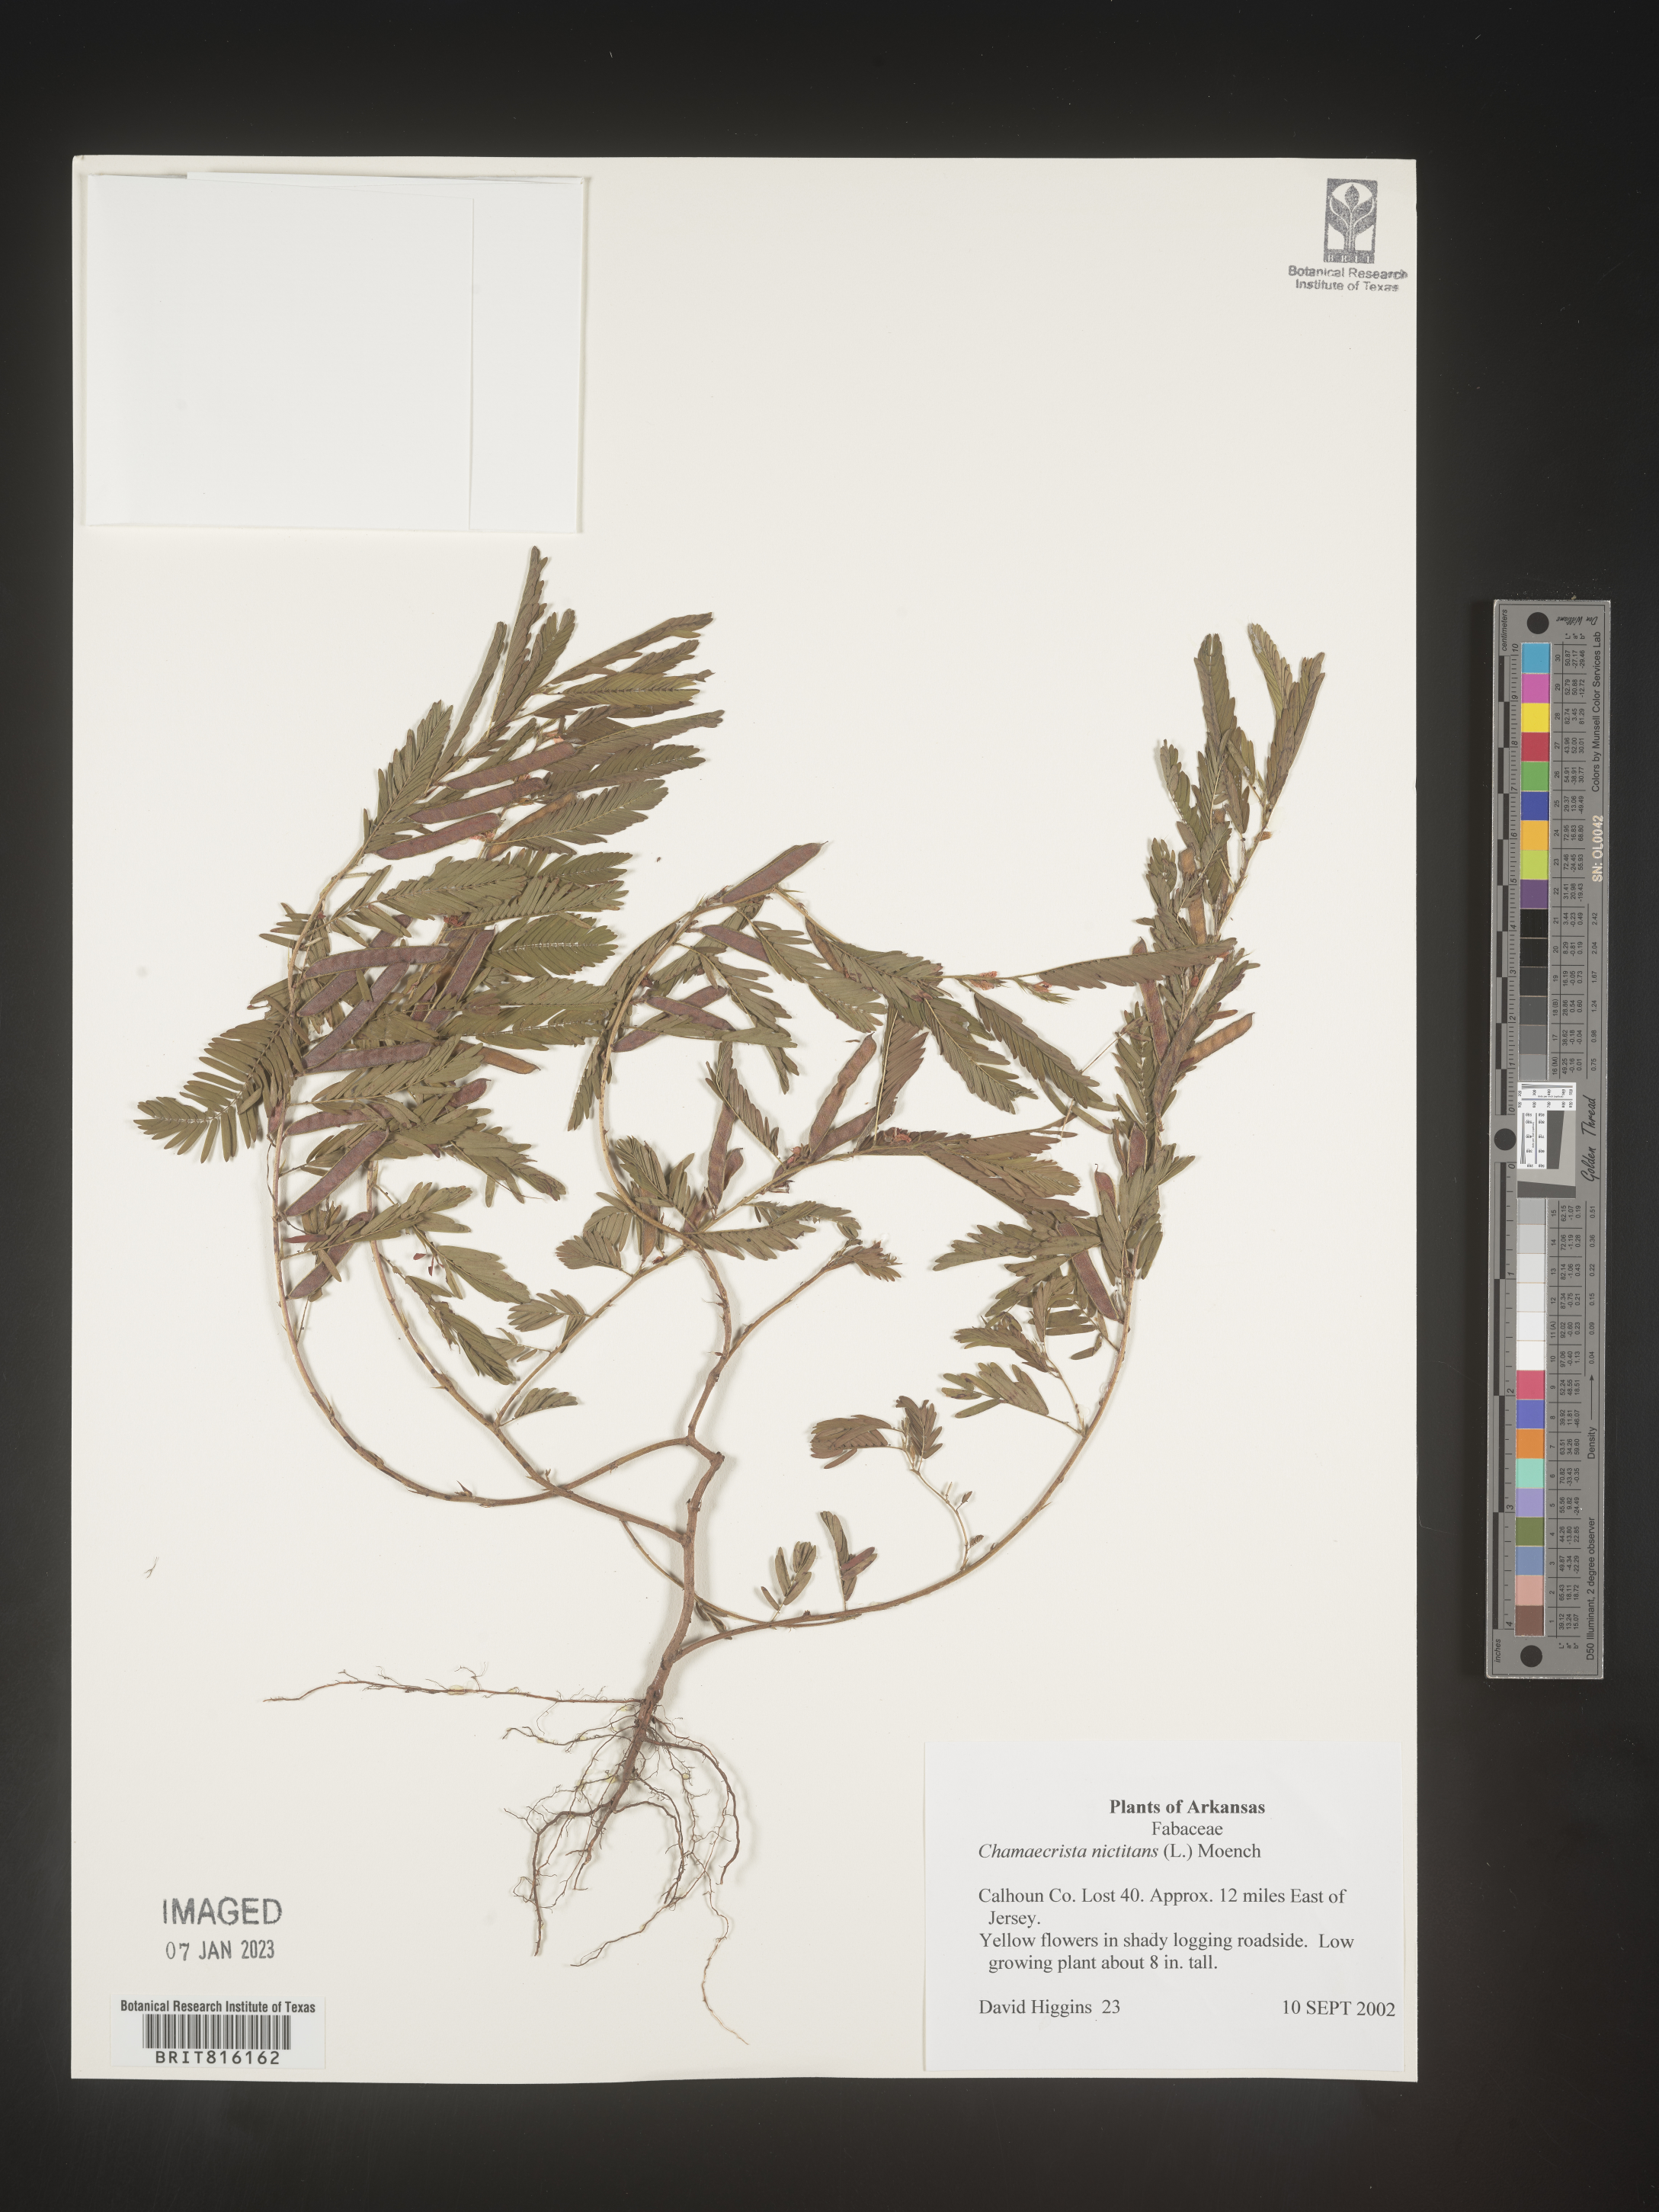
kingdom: Plantae
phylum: Tracheophyta
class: Magnoliopsida
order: Fabales
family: Fabaceae
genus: Chamaecrista
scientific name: Chamaecrista
